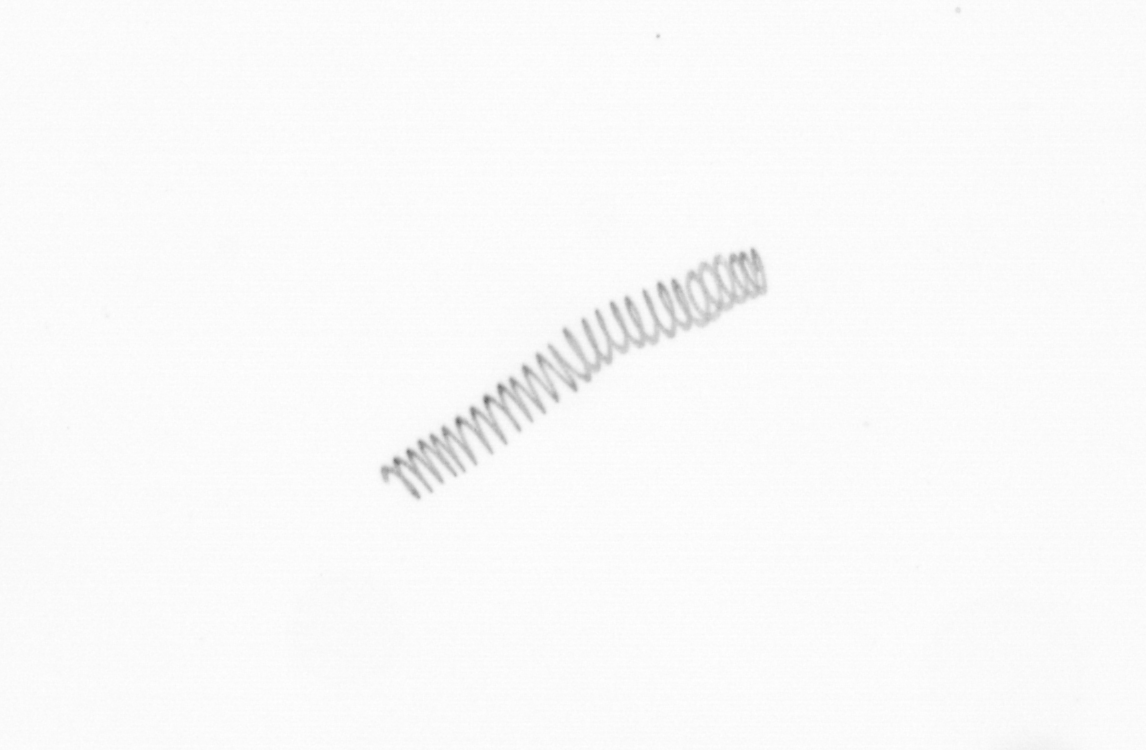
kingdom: Chromista
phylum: Ochrophyta
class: Bacillariophyceae
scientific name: Bacillariophyceae
